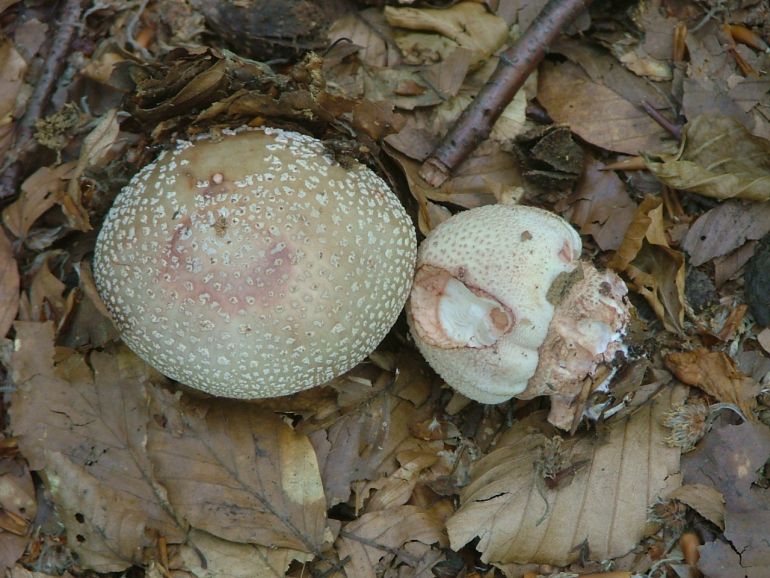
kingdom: Fungi
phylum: Basidiomycota
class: Agaricomycetes
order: Agaricales
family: Amanitaceae
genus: Amanita
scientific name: Amanita rubescens
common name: rødmende fluesvamp
